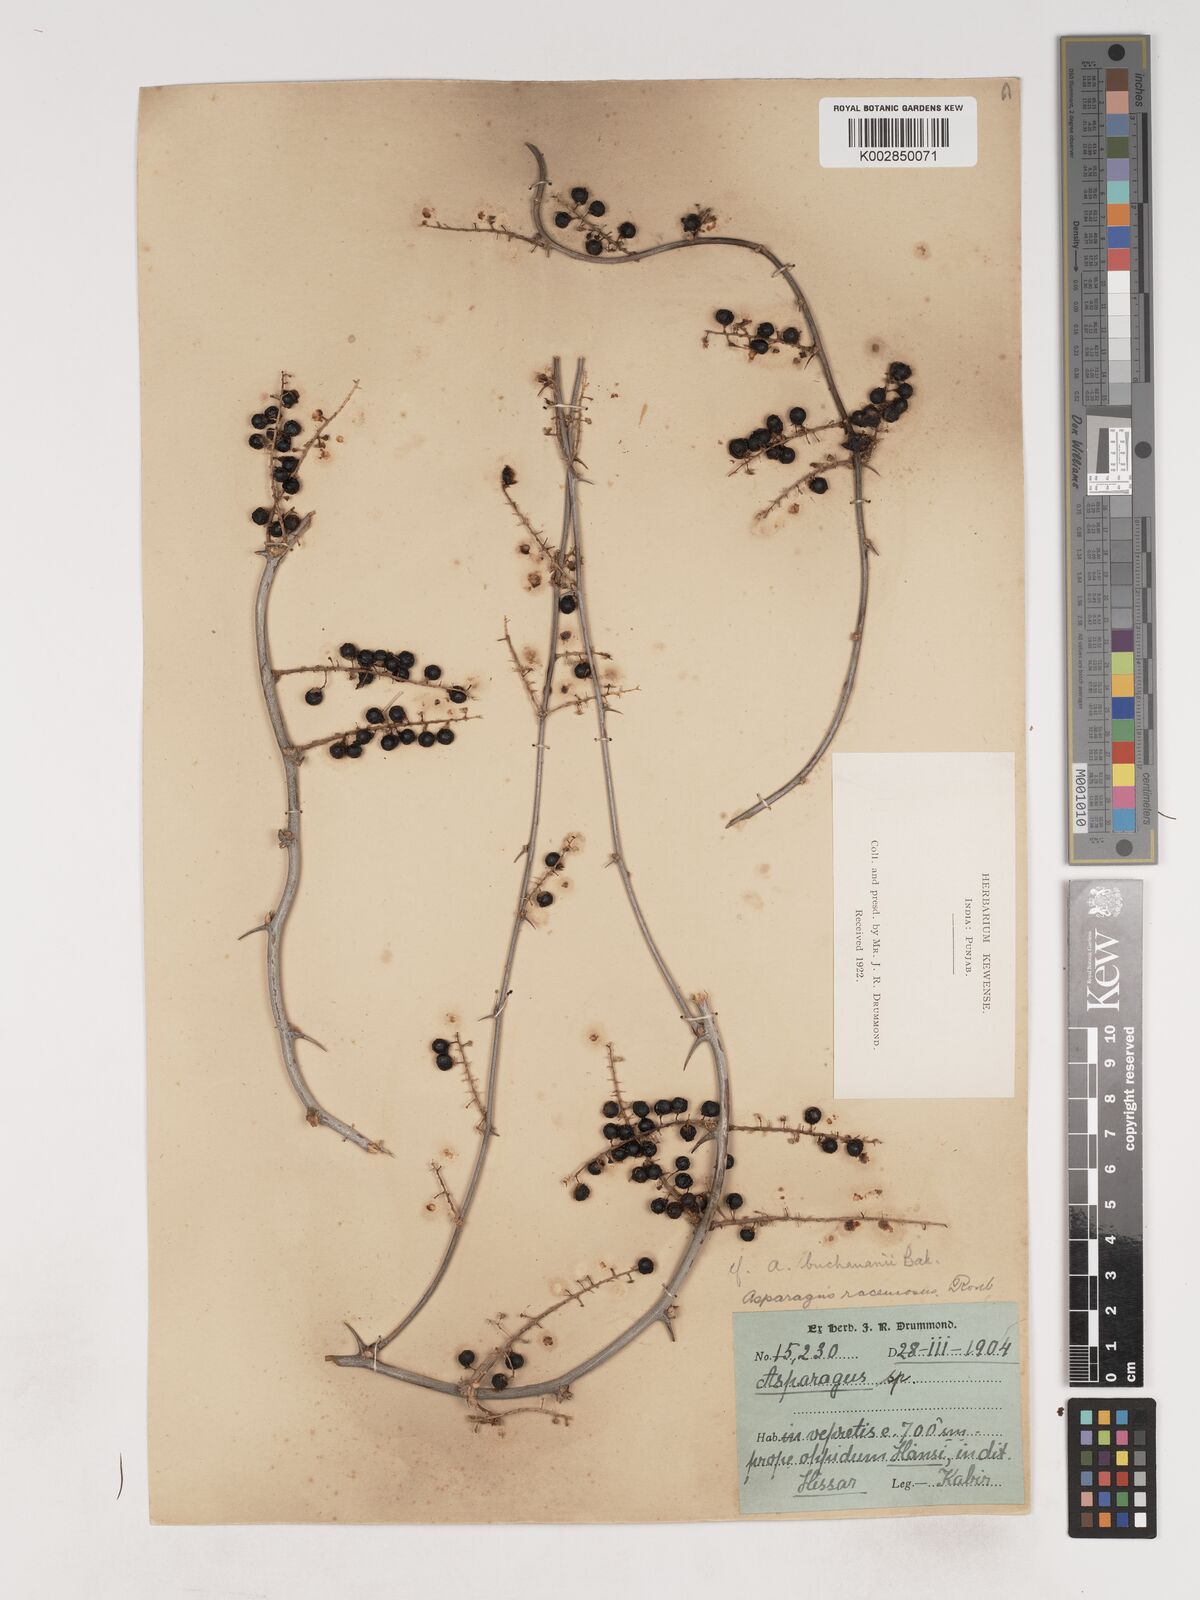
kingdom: Plantae
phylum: Tracheophyta
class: Liliopsida
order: Asparagales
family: Asparagaceae
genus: Asparagus
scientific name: Asparagus racemosus
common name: Asparagus-fern
